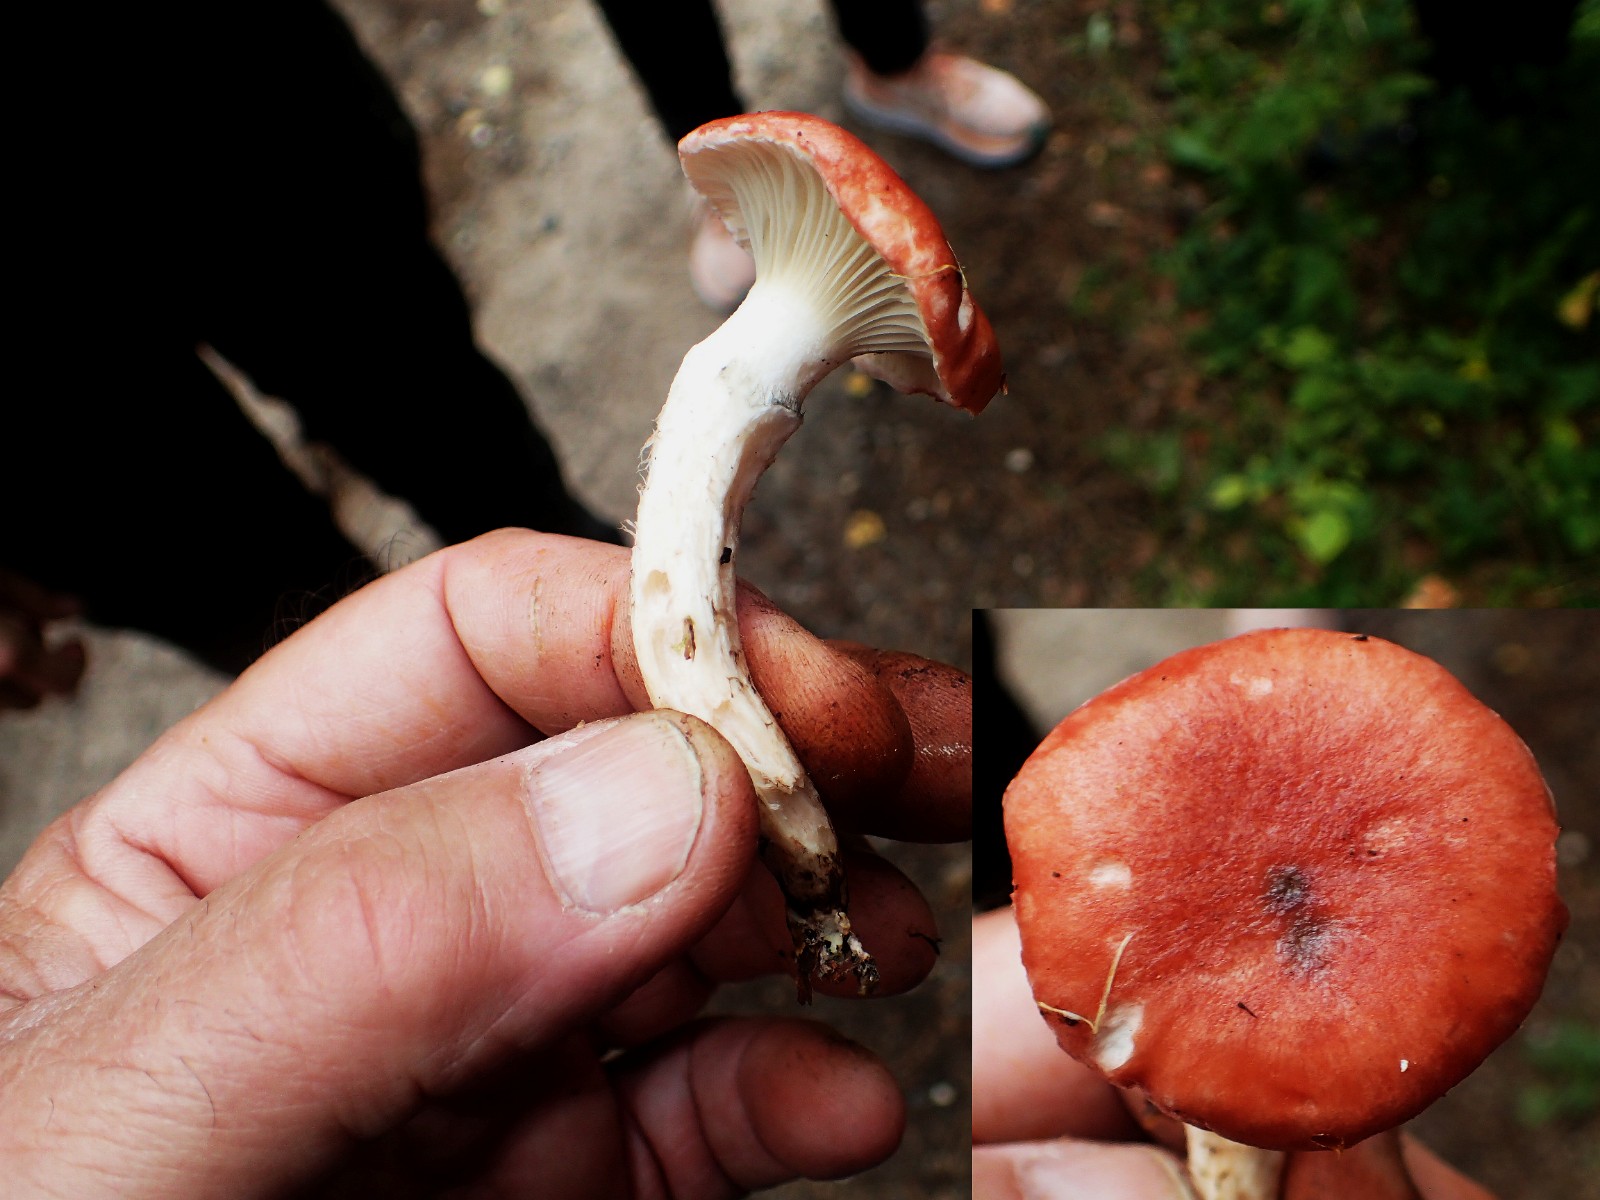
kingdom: Fungi
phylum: Basidiomycota
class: Agaricomycetes
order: Boletales
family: Gomphidiaceae
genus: Gomphidius
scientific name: Gomphidius roseus
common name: rosenrød slimslør
